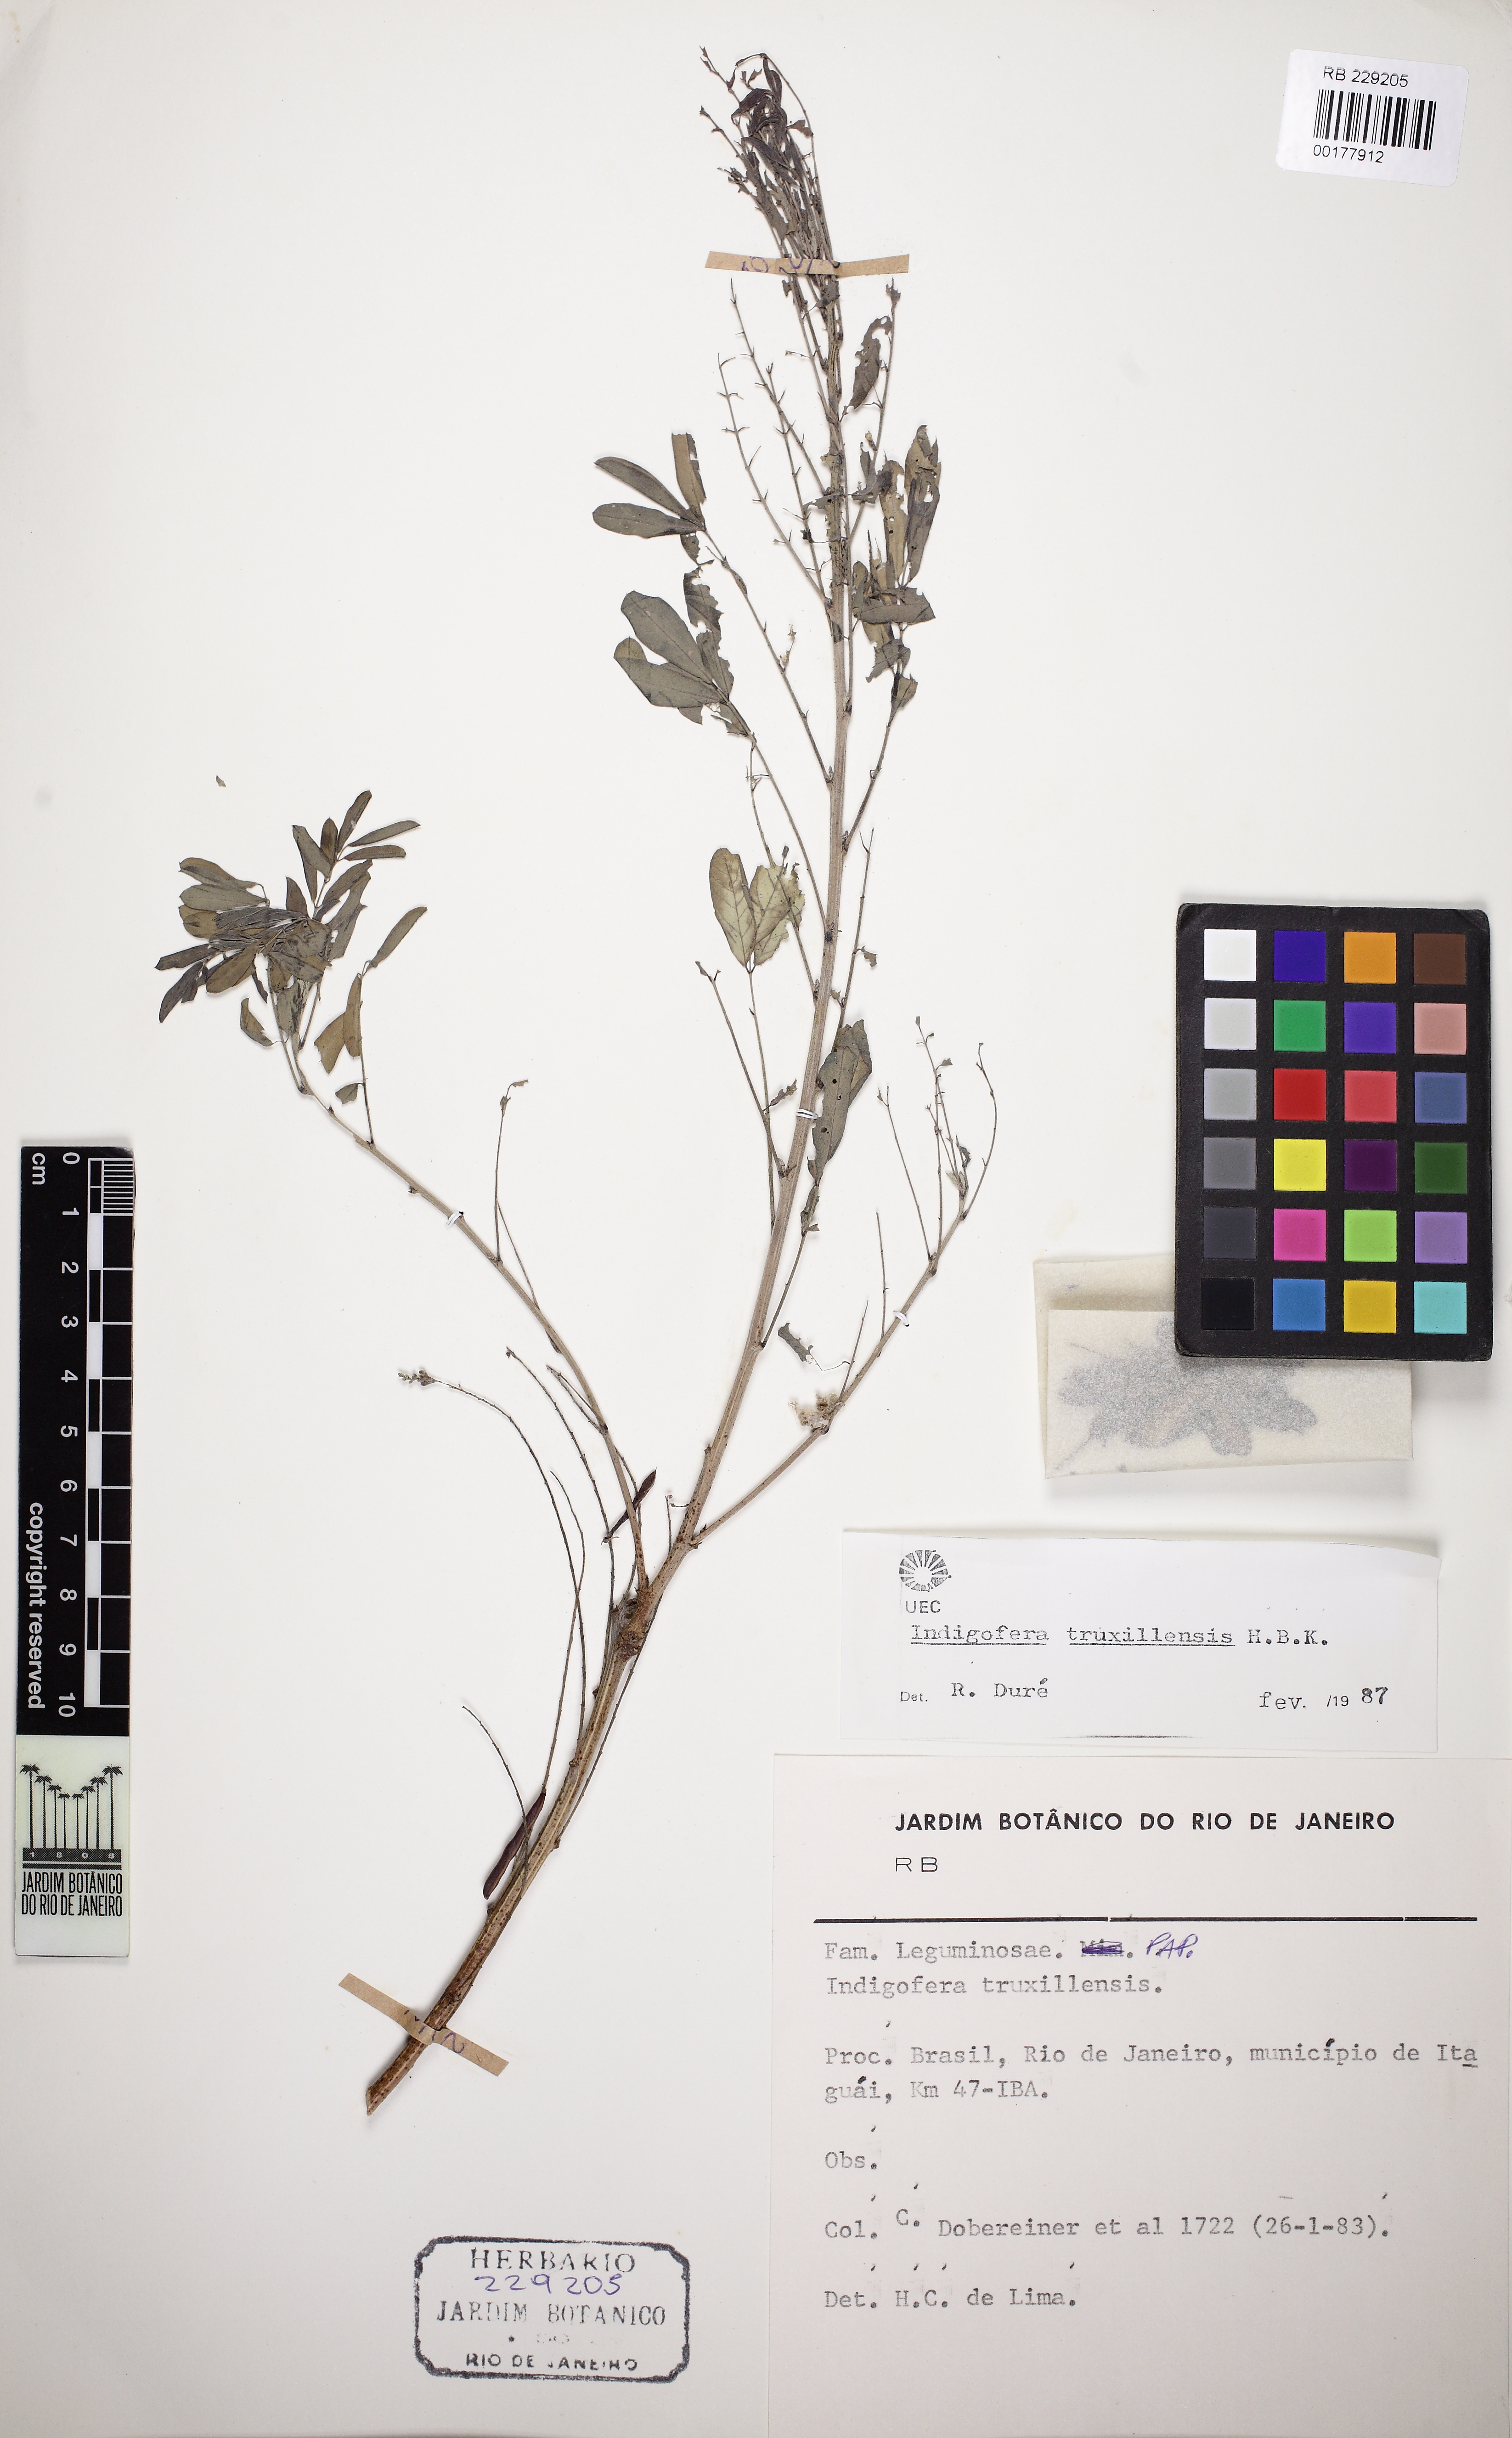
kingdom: Plantae
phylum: Tracheophyta
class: Magnoliopsida
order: Fabales
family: Fabaceae
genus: Indigofera
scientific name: Indigofera truxillensis
